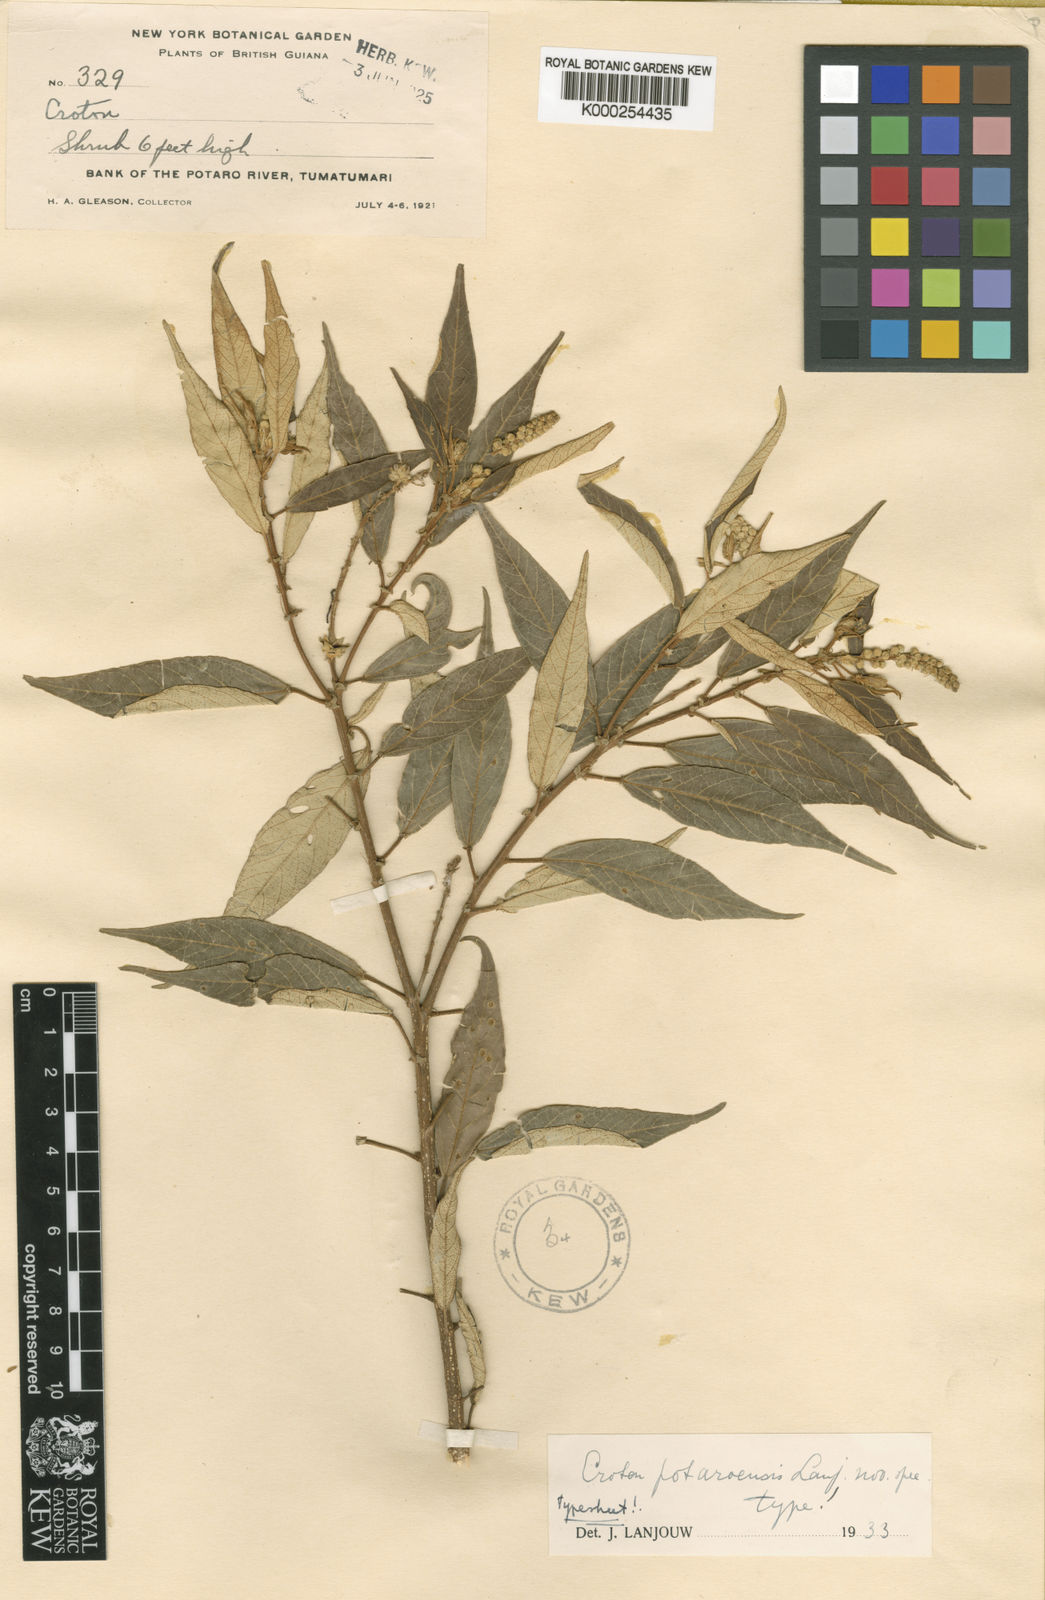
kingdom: Plantae
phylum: Tracheophyta
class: Magnoliopsida
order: Malpighiales
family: Euphorbiaceae
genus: Croton
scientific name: Croton potaroensis
